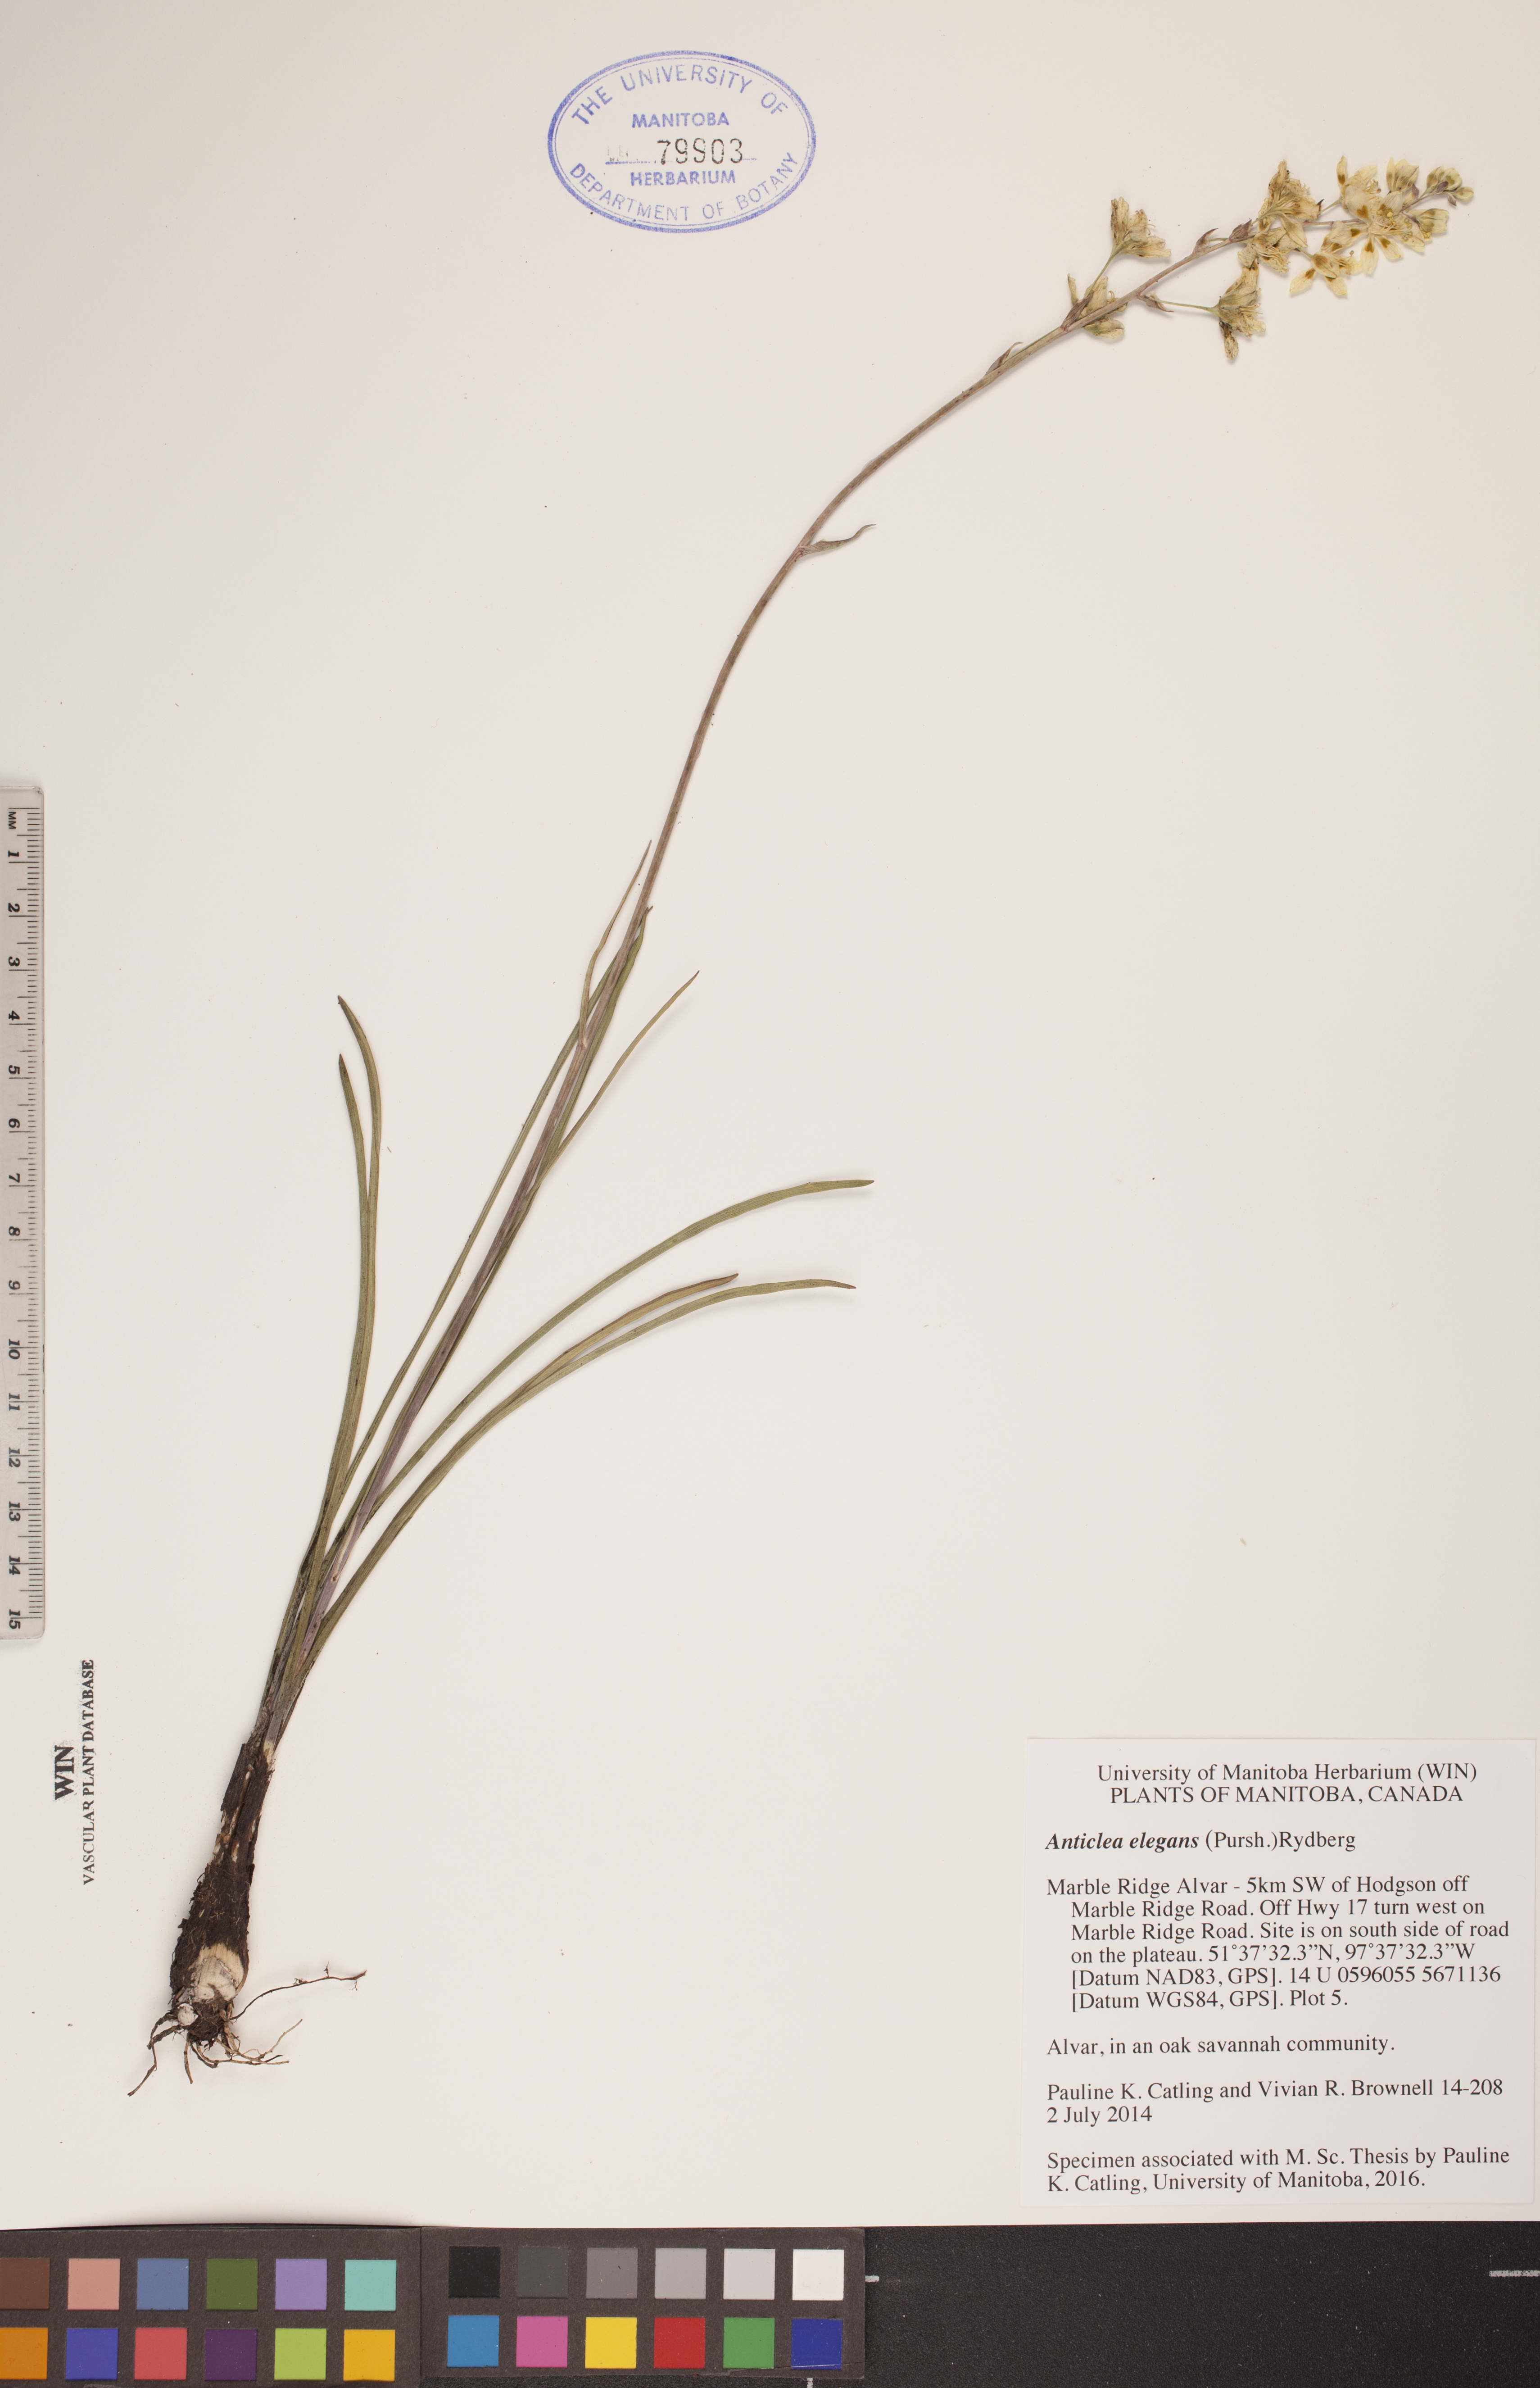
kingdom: Plantae
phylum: Tracheophyta
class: Liliopsida
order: Liliales
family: Melanthiaceae
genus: Anticlea
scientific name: Anticlea elegans
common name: Mountain death camas
